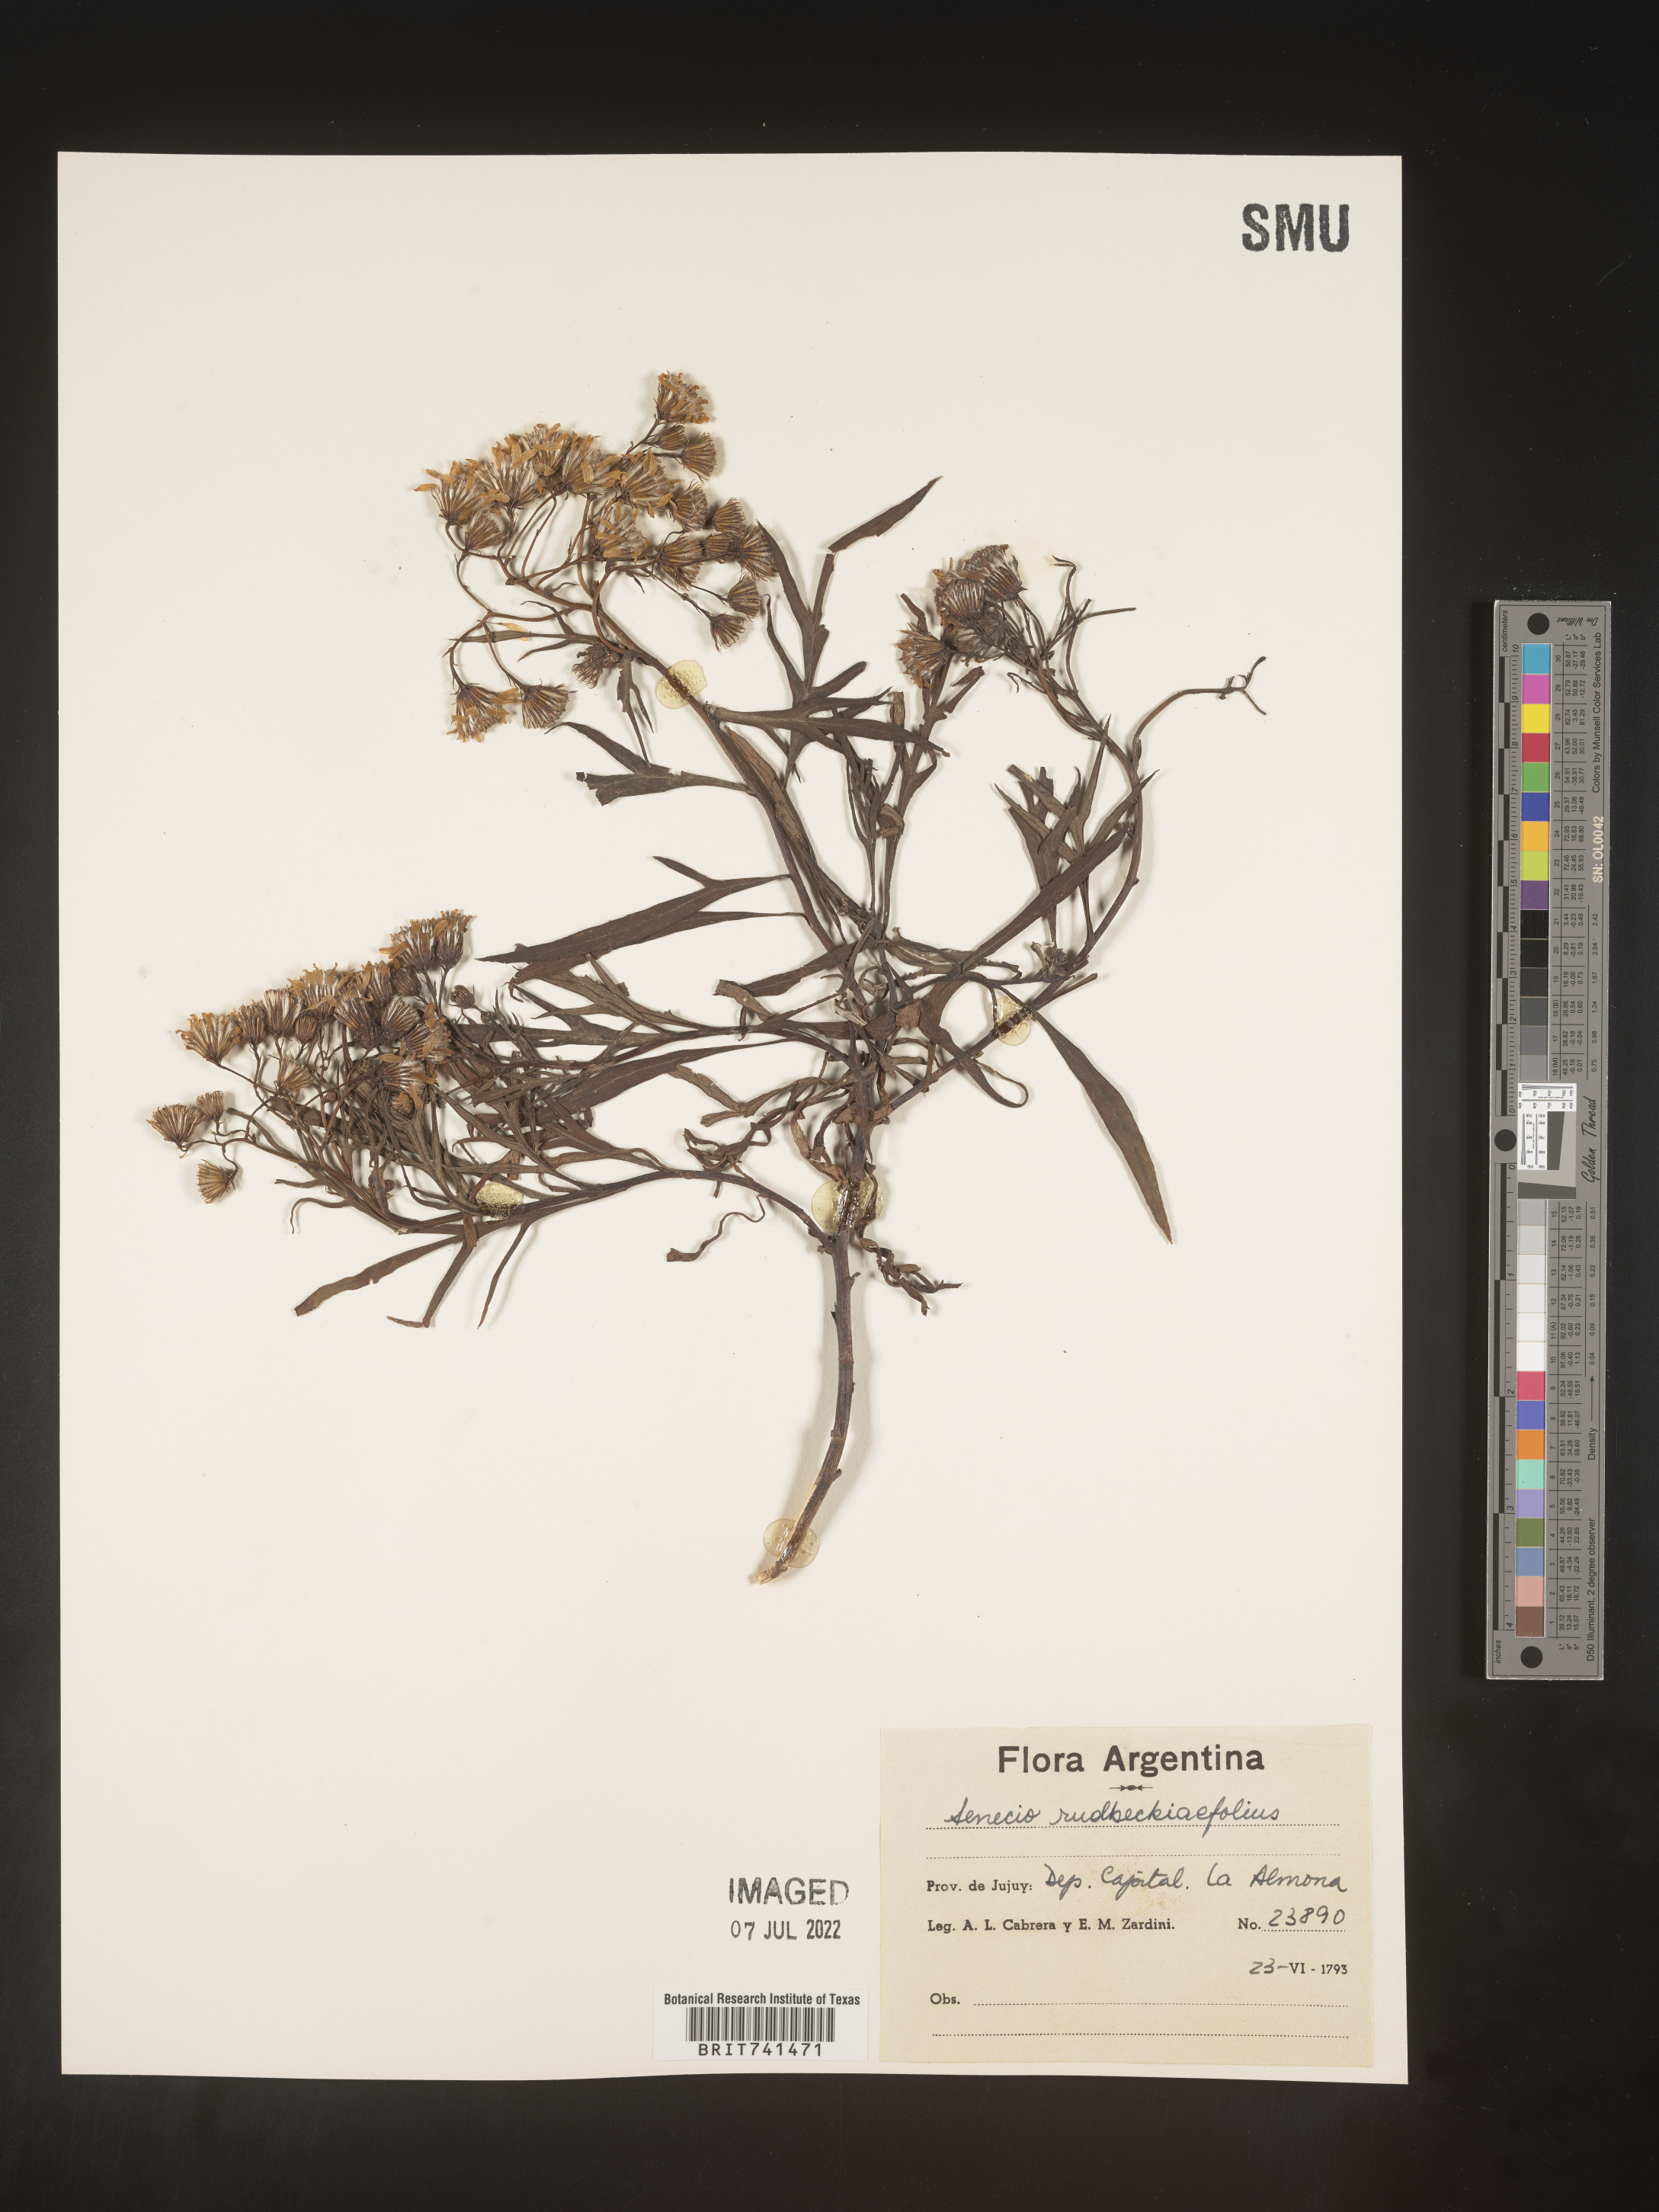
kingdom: Plantae
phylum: Tracheophyta
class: Magnoliopsida
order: Asterales
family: Asteraceae
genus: Senecio
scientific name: Senecio
